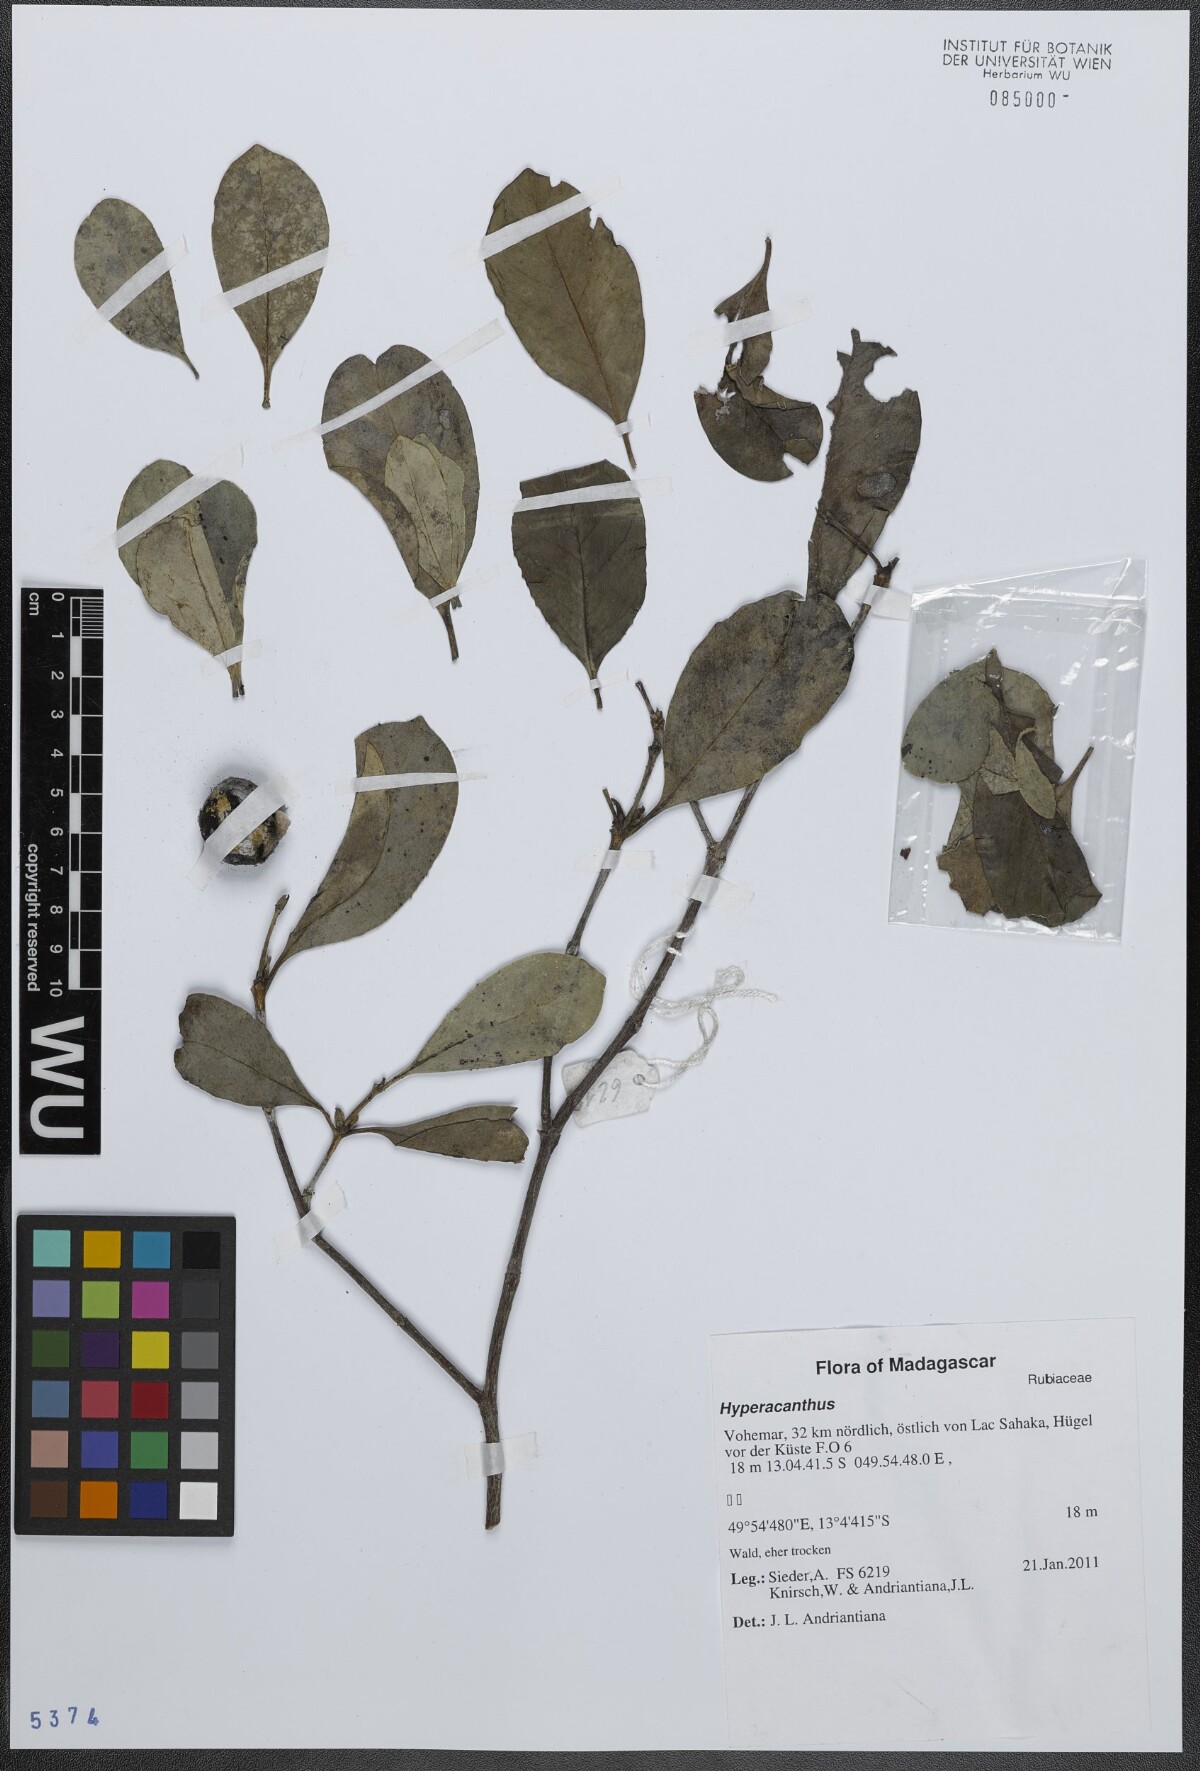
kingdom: Plantae
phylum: Tracheophyta
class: Magnoliopsida
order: Gentianales
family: Rubiaceae
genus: Hyperacanthus
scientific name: Hyperacanthus
